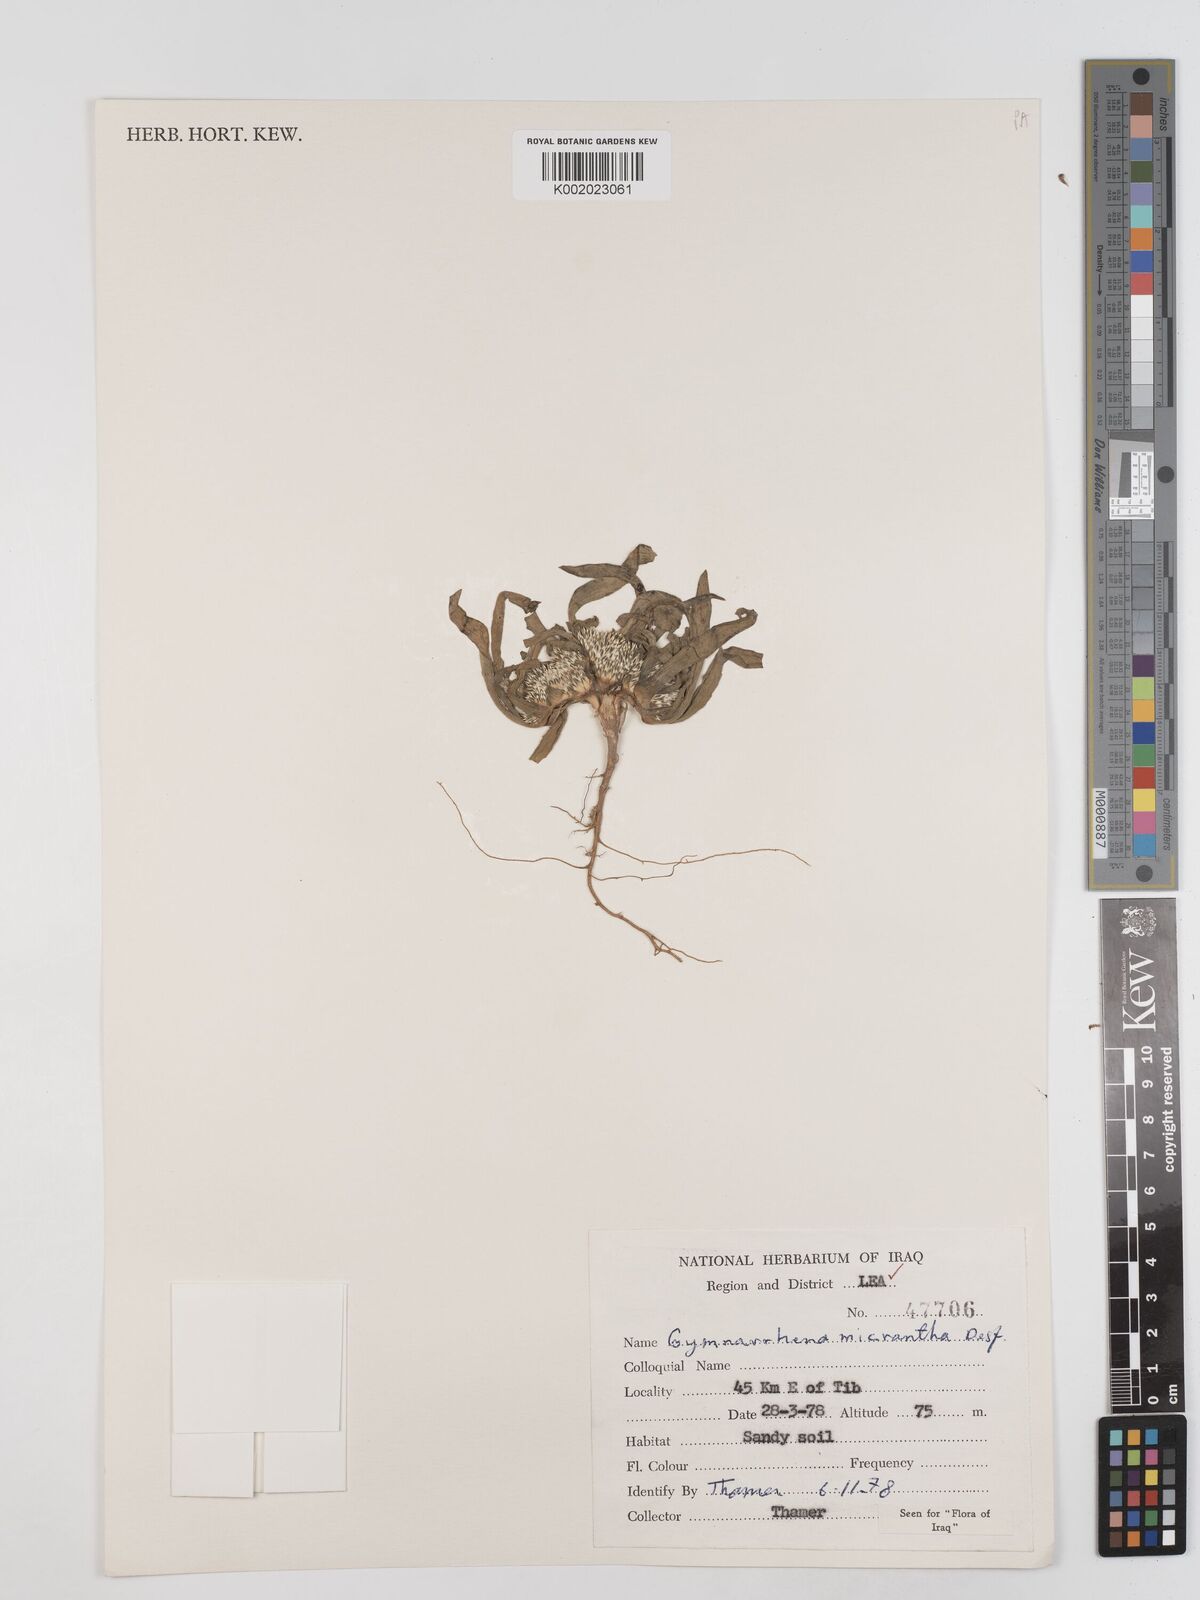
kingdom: Plantae
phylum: Tracheophyta
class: Magnoliopsida
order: Asterales
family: Asteraceae
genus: Gymnarrhena
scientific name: Gymnarrhena micrantha
